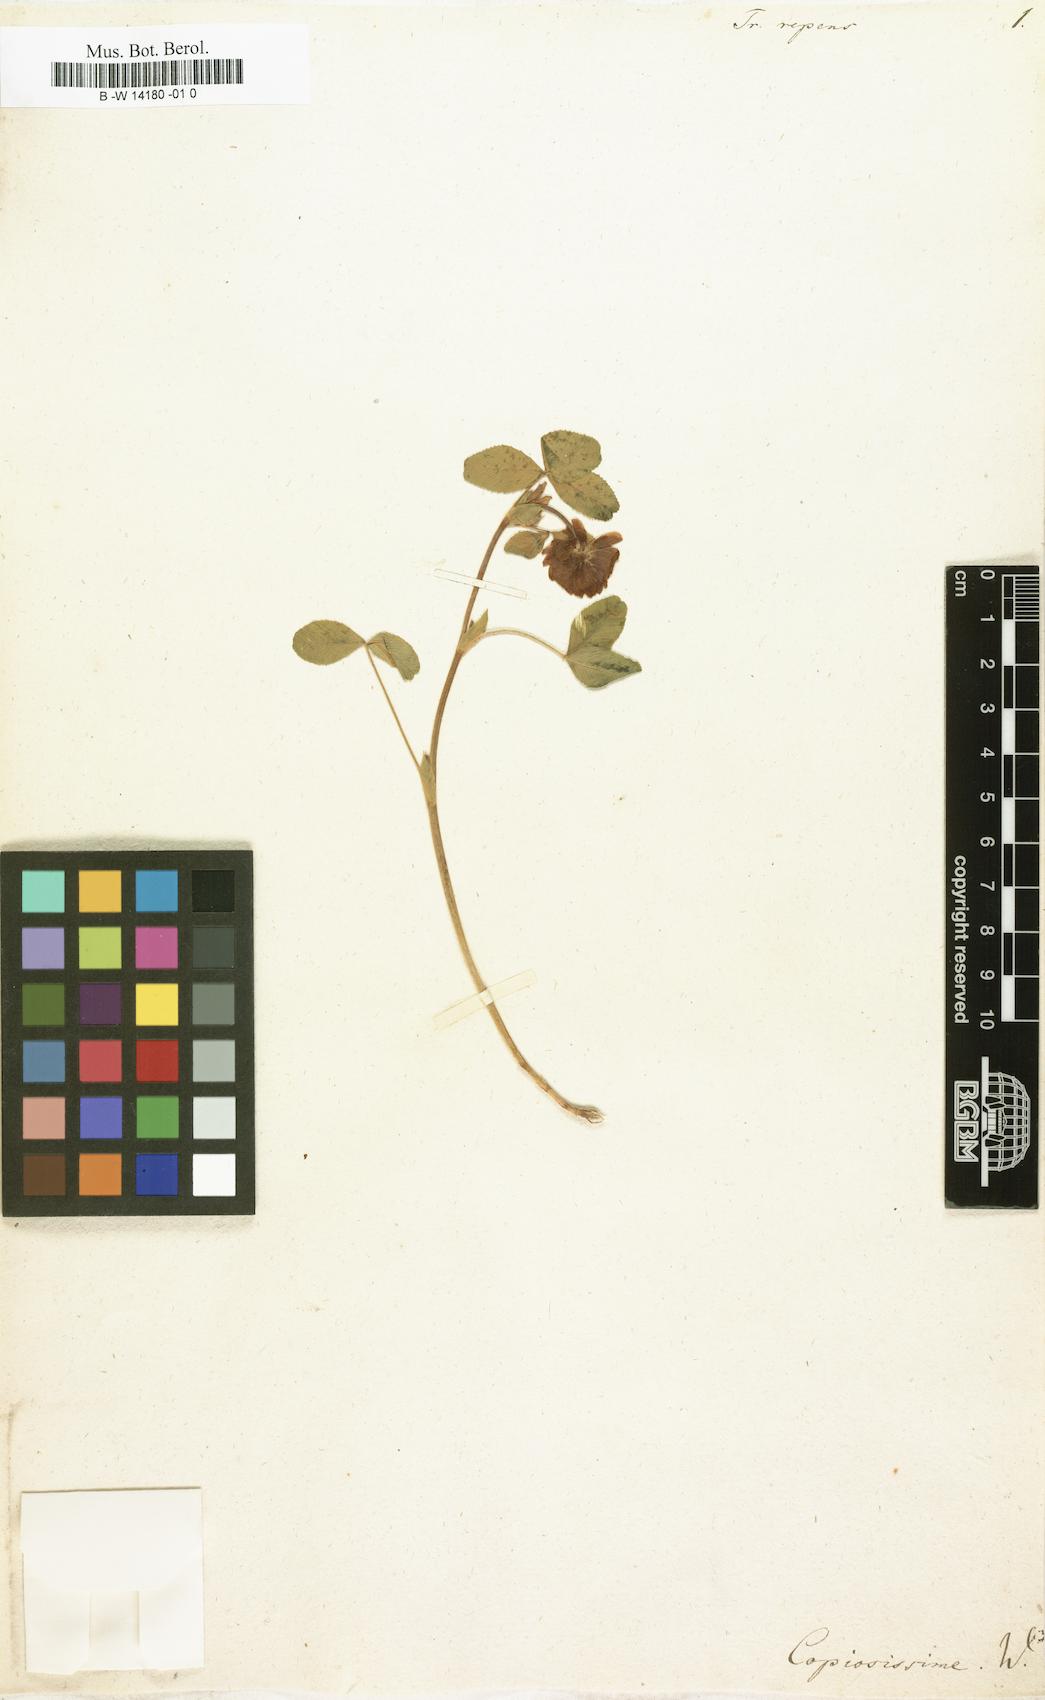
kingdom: Plantae
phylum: Tracheophyta
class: Magnoliopsida
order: Fabales
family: Fabaceae
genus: Trifolium
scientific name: Trifolium repens
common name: White clover
